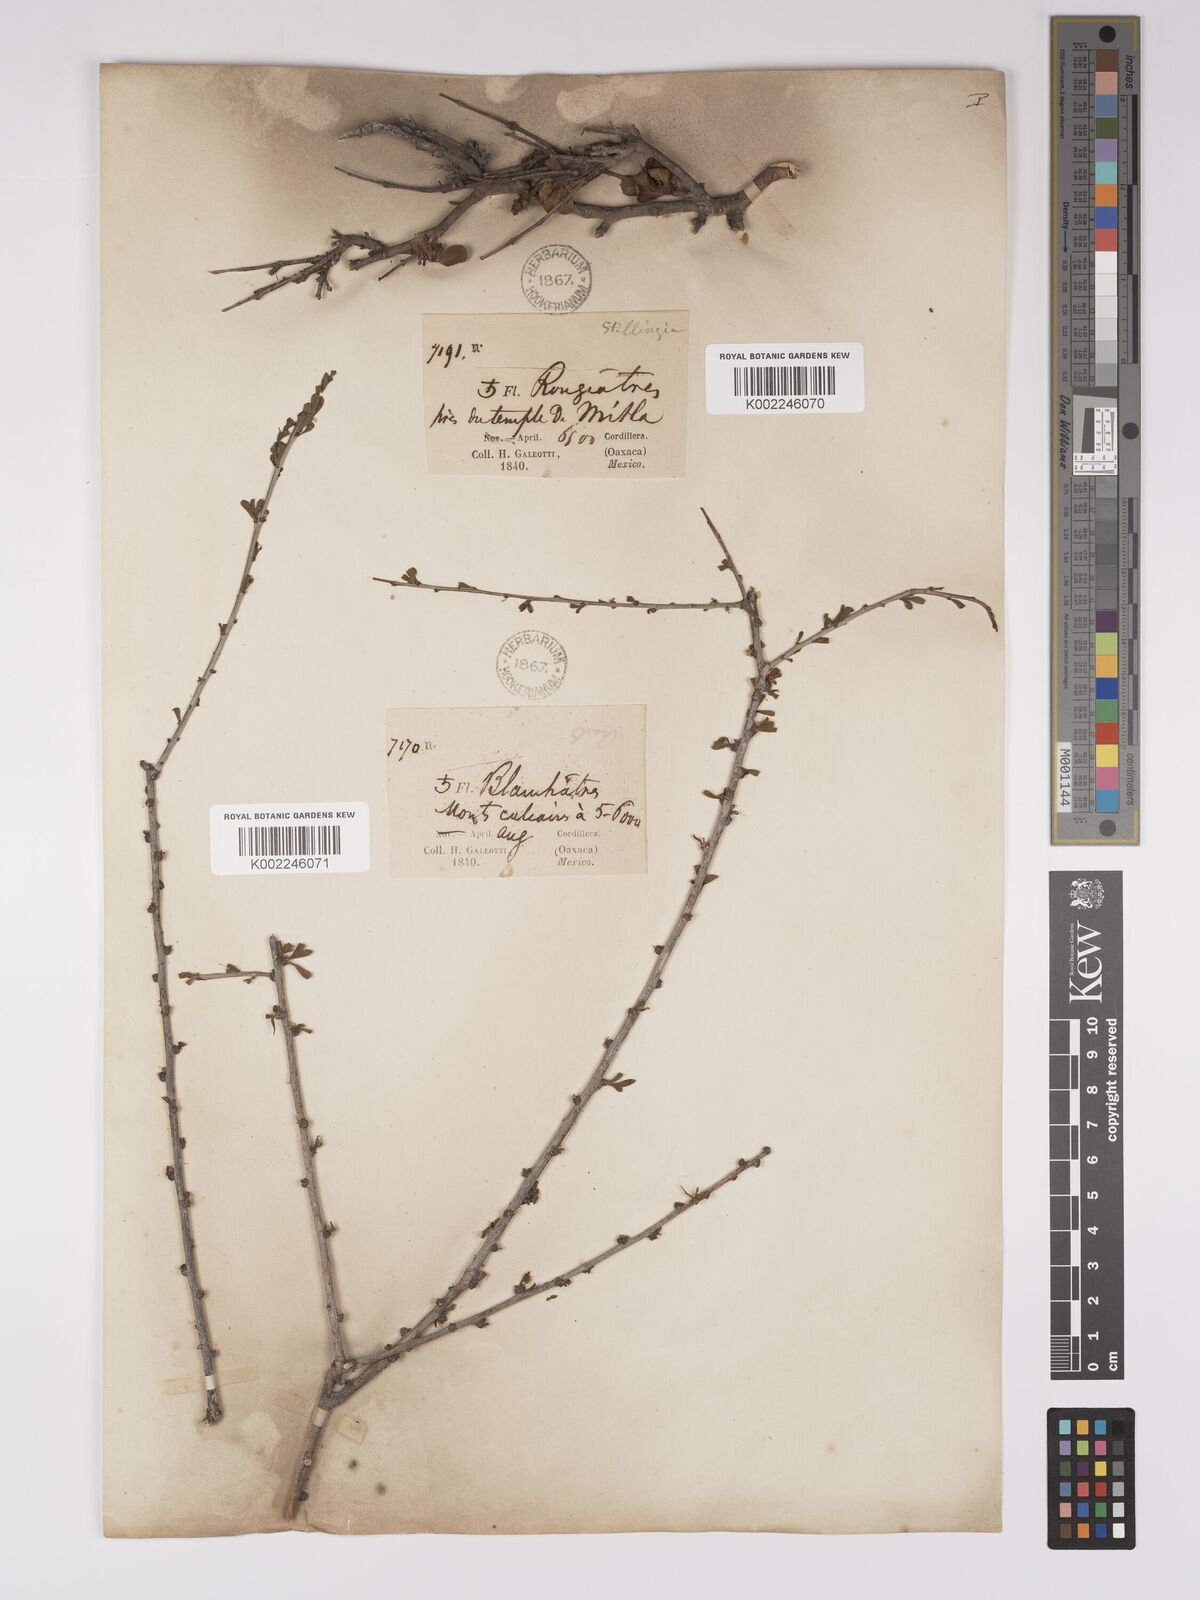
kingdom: Plantae
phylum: Tracheophyta
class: Magnoliopsida
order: Malpighiales
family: Euphorbiaceae
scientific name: Euphorbiaceae
